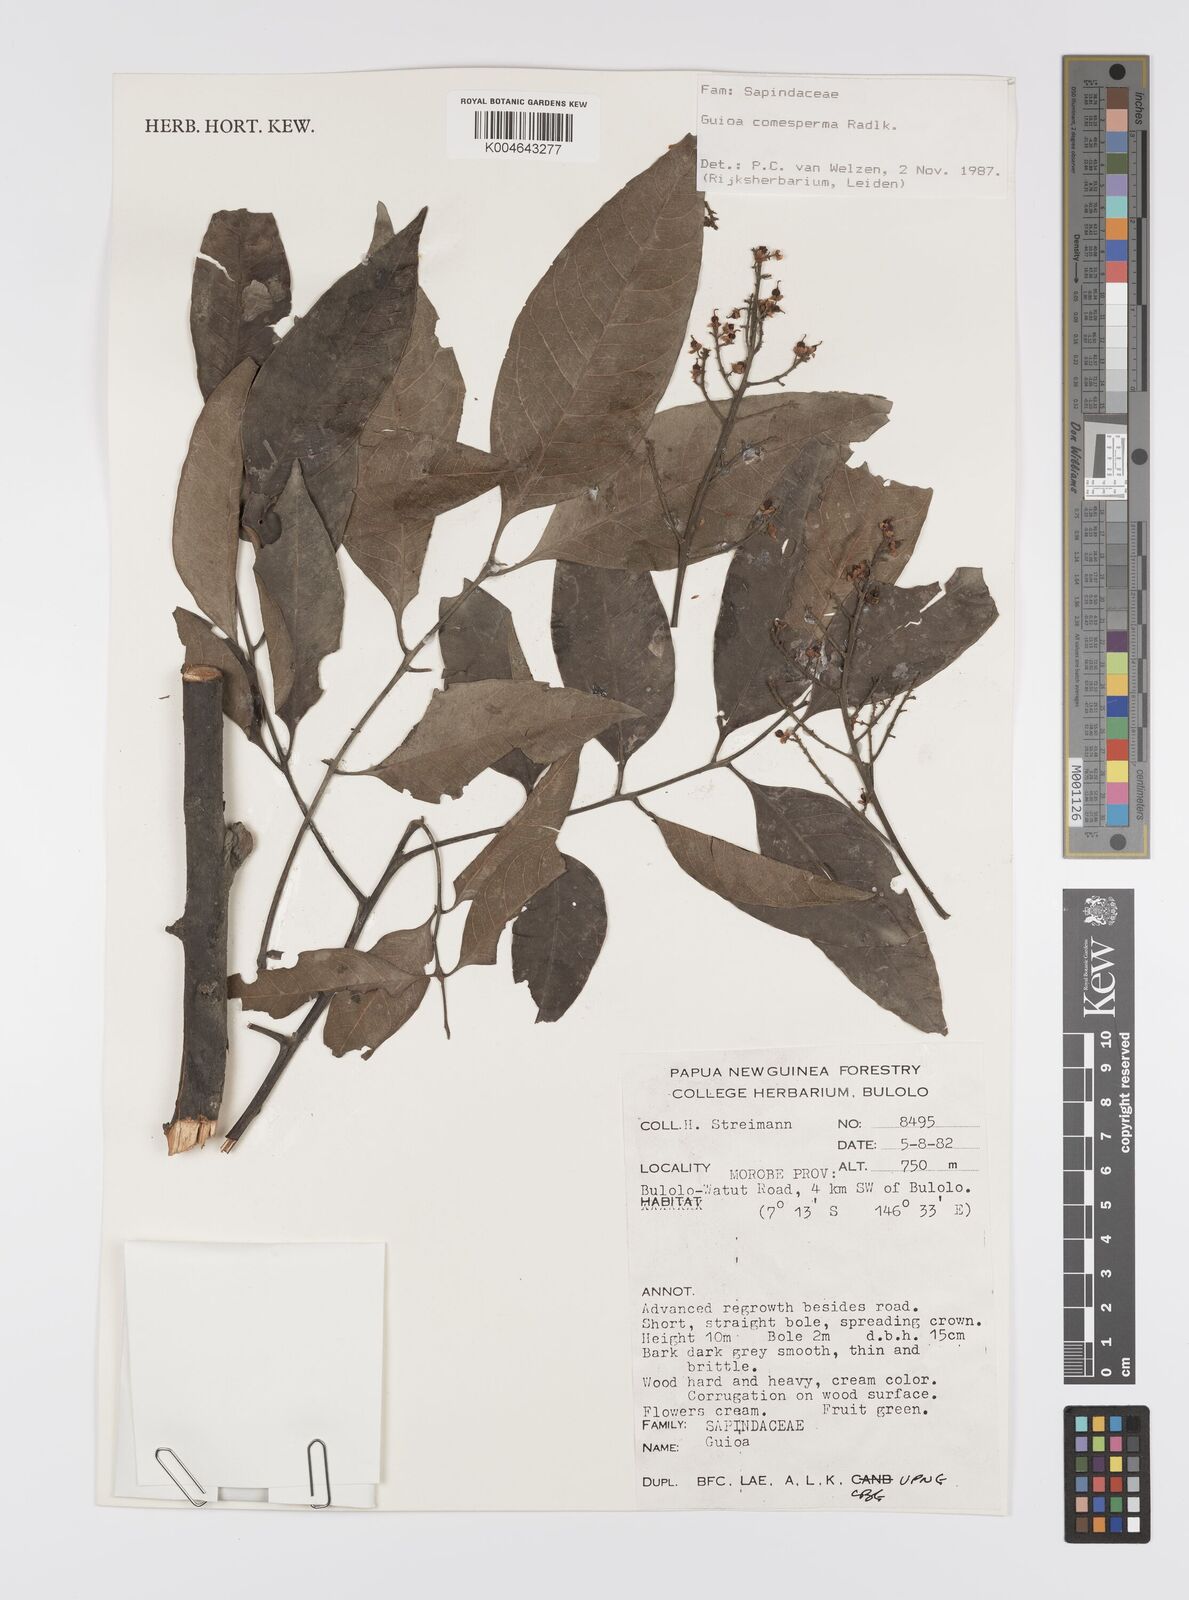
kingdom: Plantae
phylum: Tracheophyta
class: Magnoliopsida
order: Sapindales
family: Sapindaceae
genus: Guioa
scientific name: Guioa comesperma
